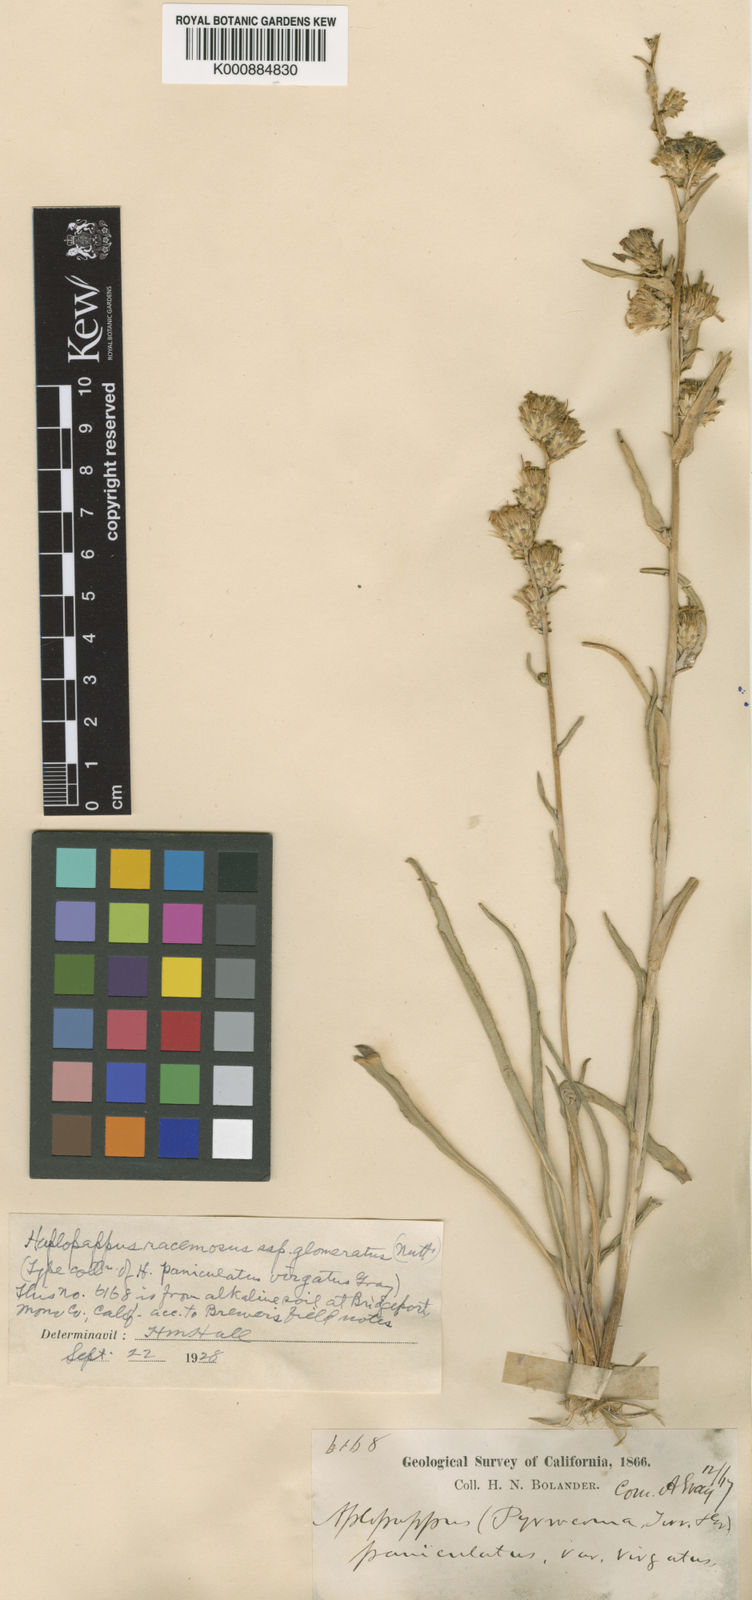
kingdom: Plantae
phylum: Tracheophyta
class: Magnoliopsida
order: Asterales
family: Asteraceae
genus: Pyrrocoma
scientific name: Pyrrocoma racemosa
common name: Clustered goldenweed
